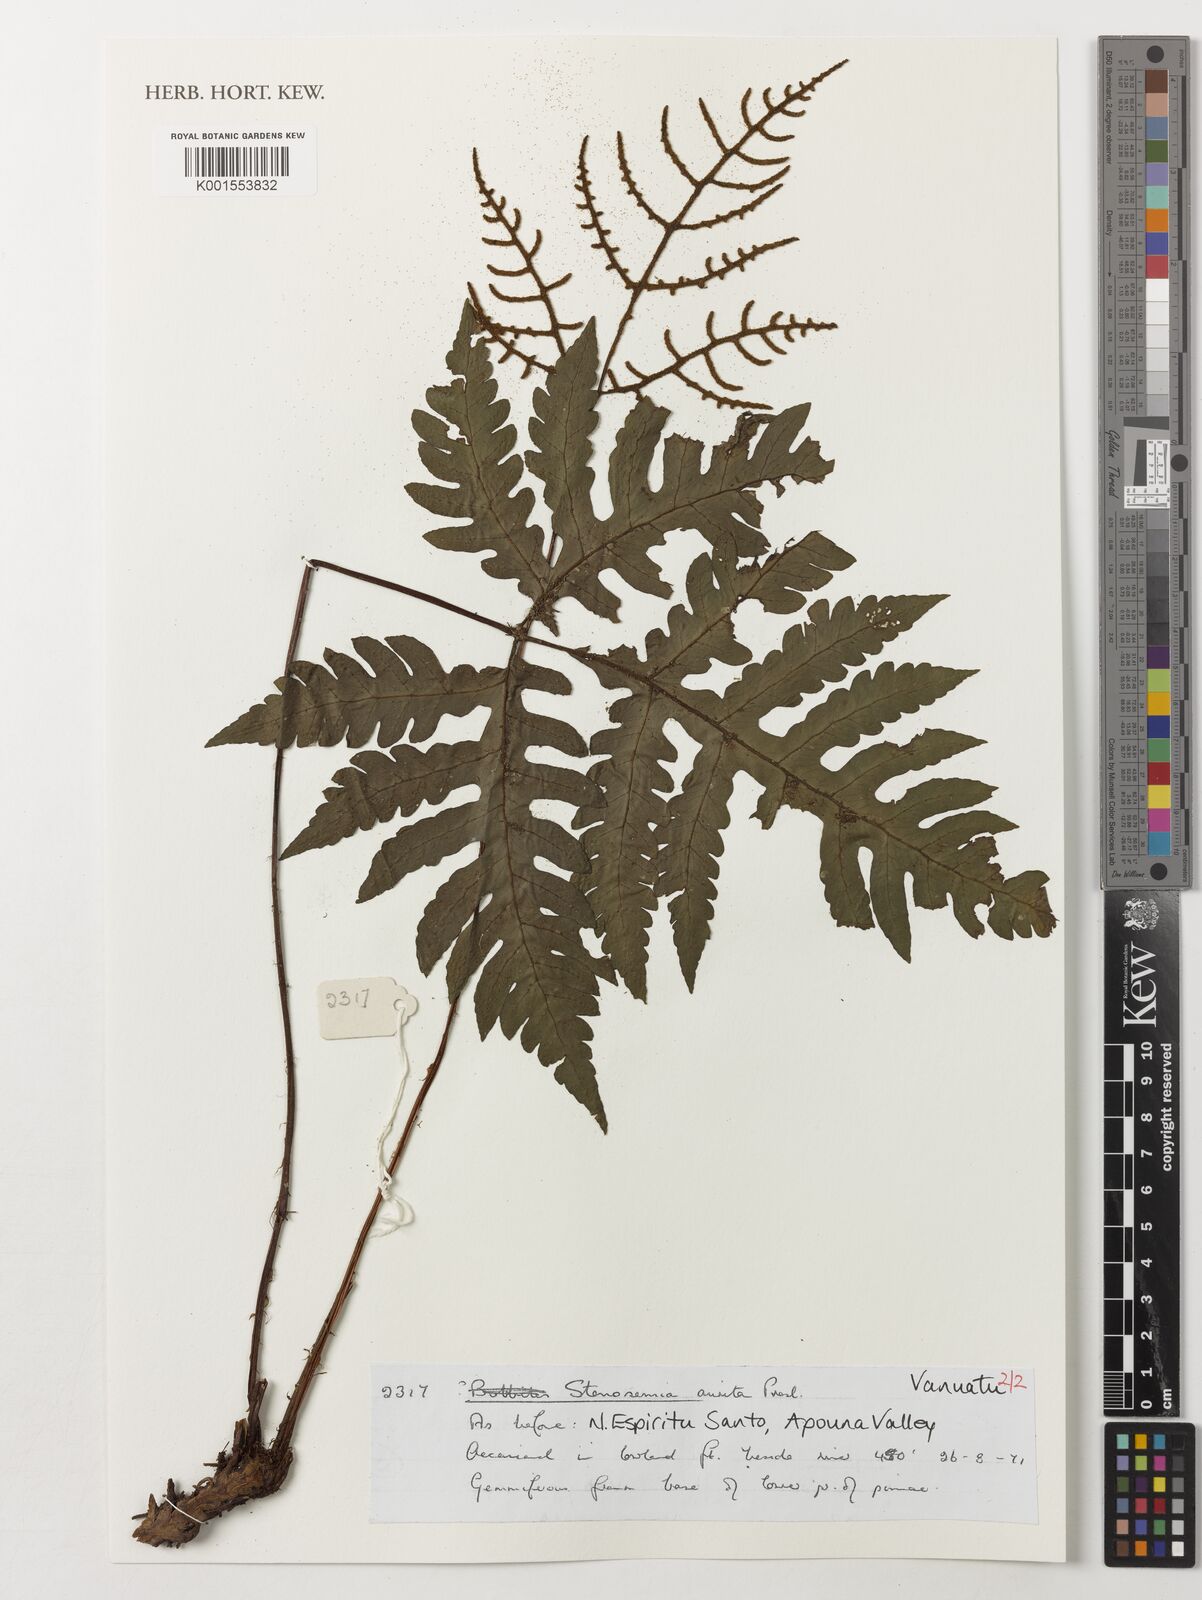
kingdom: Plantae
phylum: Tracheophyta
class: Polypodiopsida
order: Polypodiales
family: Tectariaceae
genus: Tectaria
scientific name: Tectaria aurita
